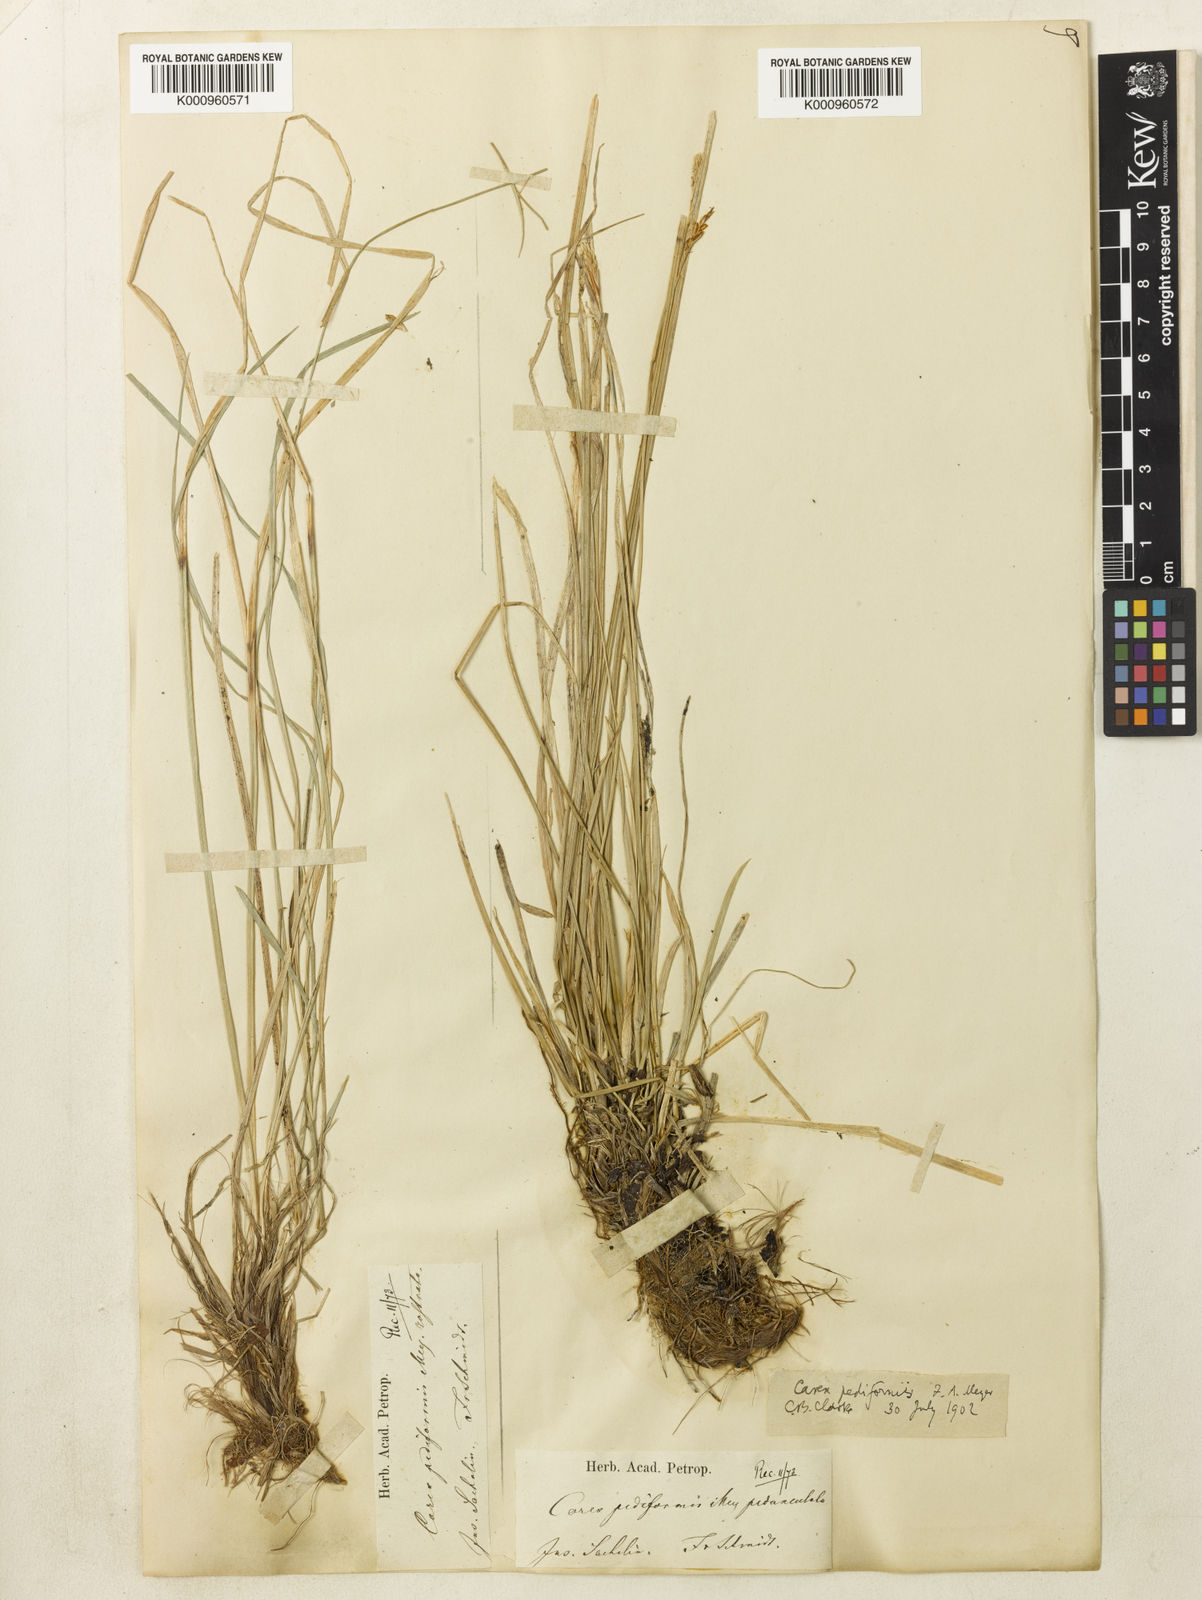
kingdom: Plantae
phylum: Tracheophyta
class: Liliopsida
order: Poales
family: Cyperaceae
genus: Carex
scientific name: Carex pediformis
